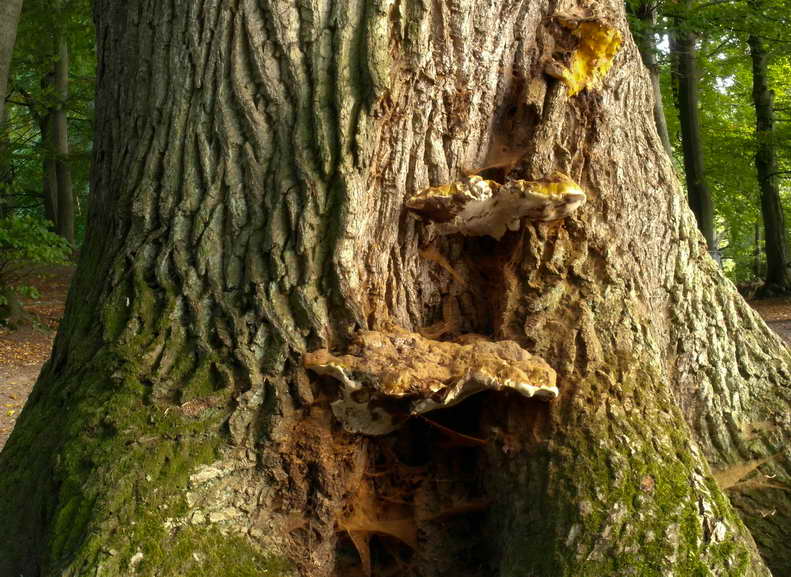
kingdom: Fungi
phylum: Basidiomycota
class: Agaricomycetes
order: Polyporales
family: Polyporaceae
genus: Ganoderma
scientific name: Ganoderma resinaceum
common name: gyldenbrun lakporesvamp
